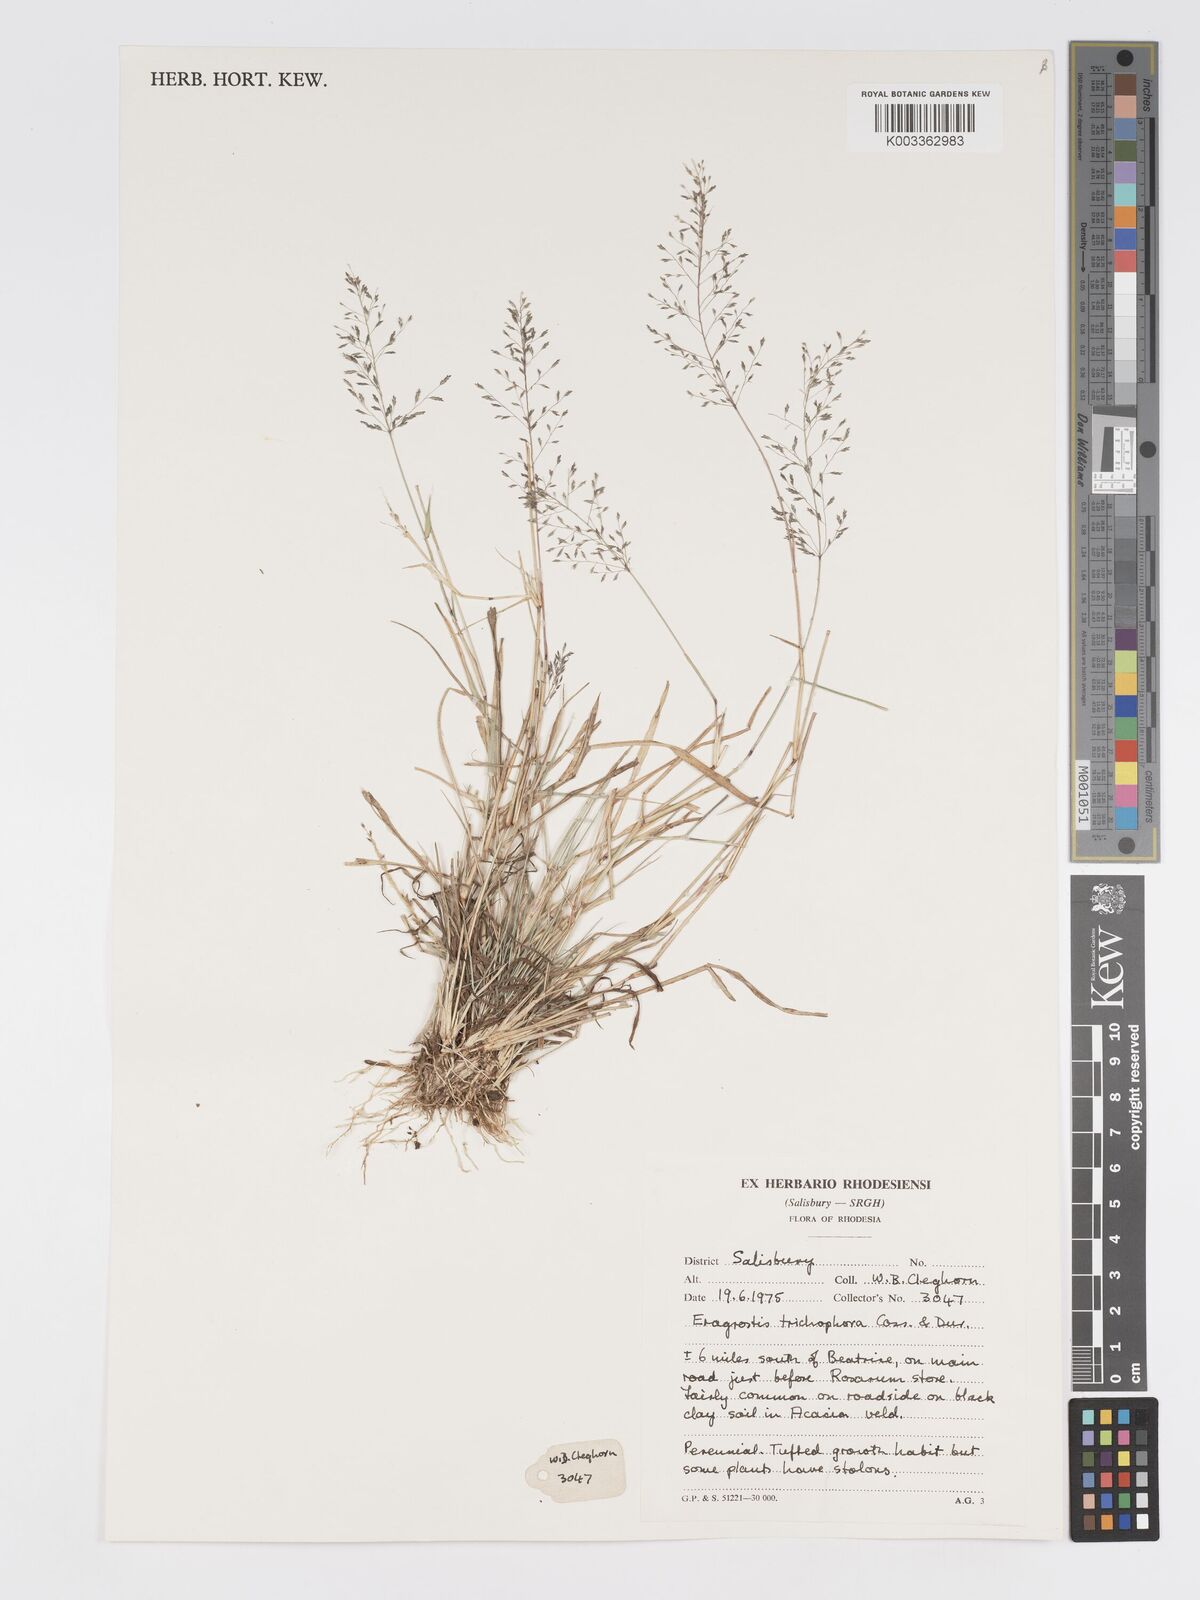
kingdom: Plantae
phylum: Tracheophyta
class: Liliopsida
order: Poales
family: Poaceae
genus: Eragrostis
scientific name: Eragrostis cylindriflora
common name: Cylinderflower lovegrass
